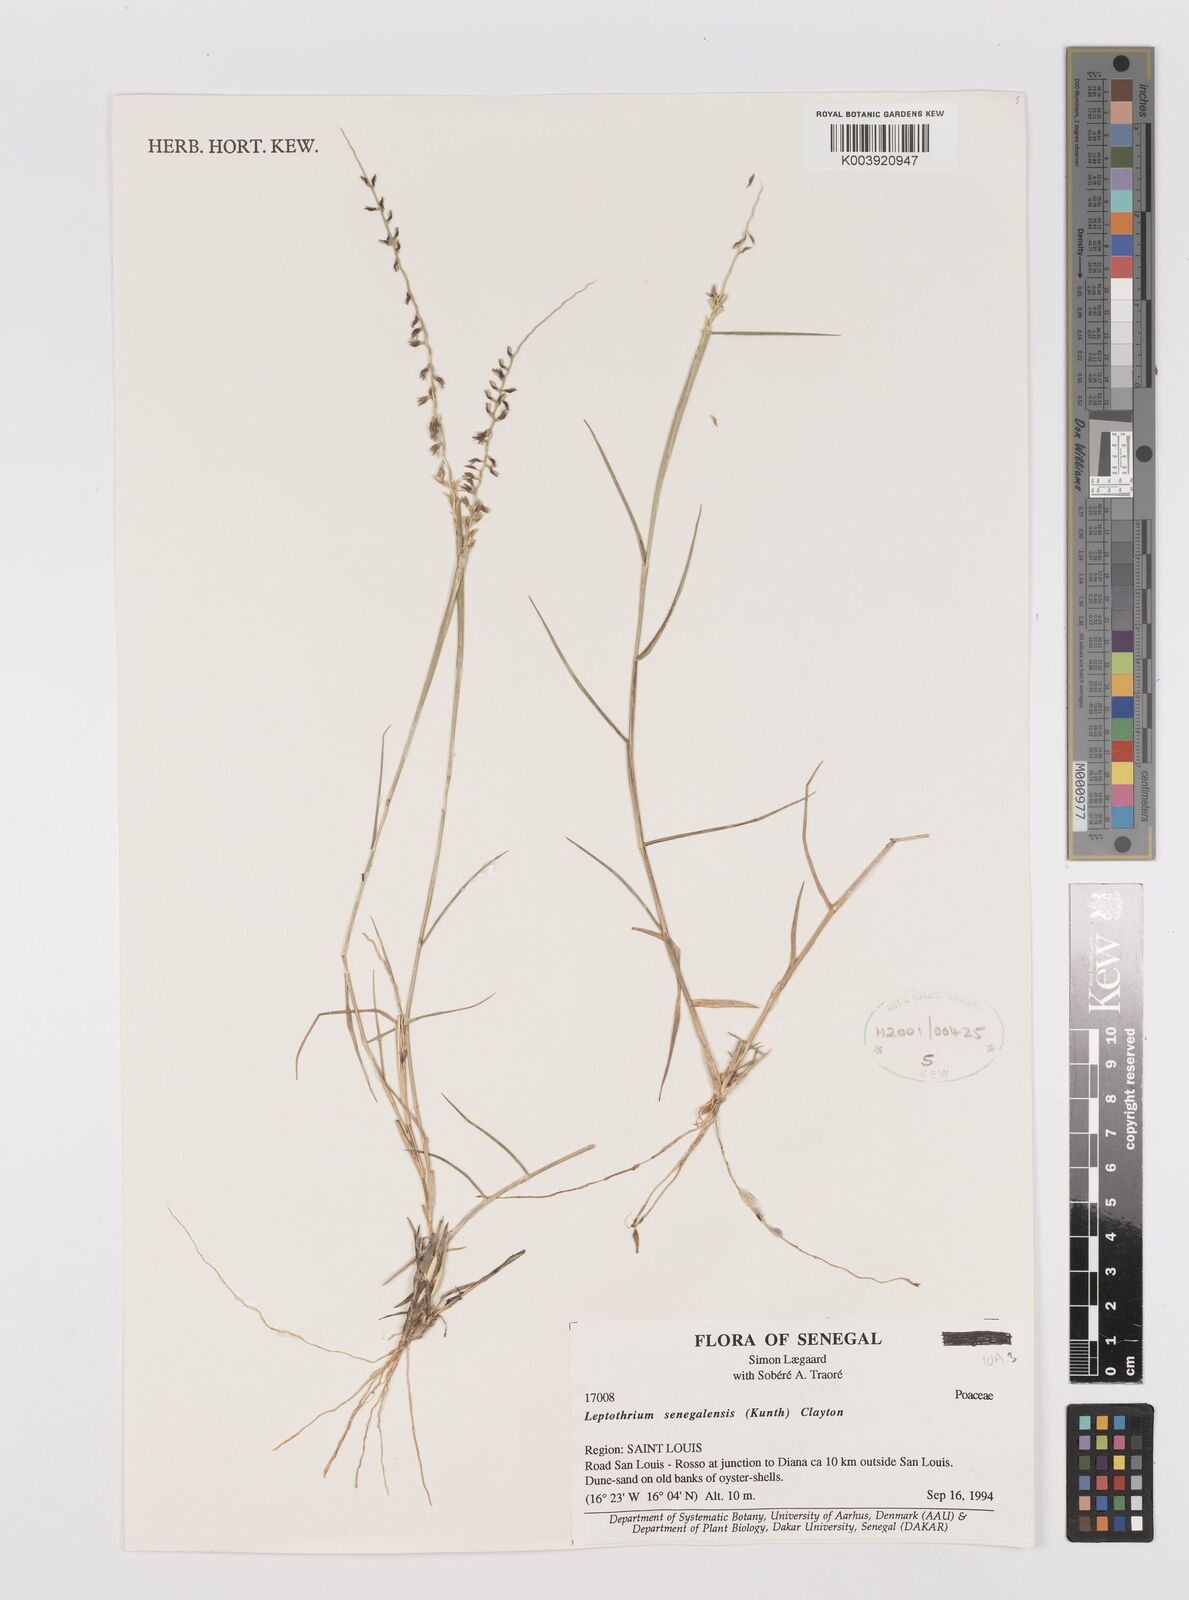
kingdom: Plantae
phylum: Tracheophyta
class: Liliopsida
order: Poales
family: Poaceae
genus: Leptothrium
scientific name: Leptothrium senegalense
